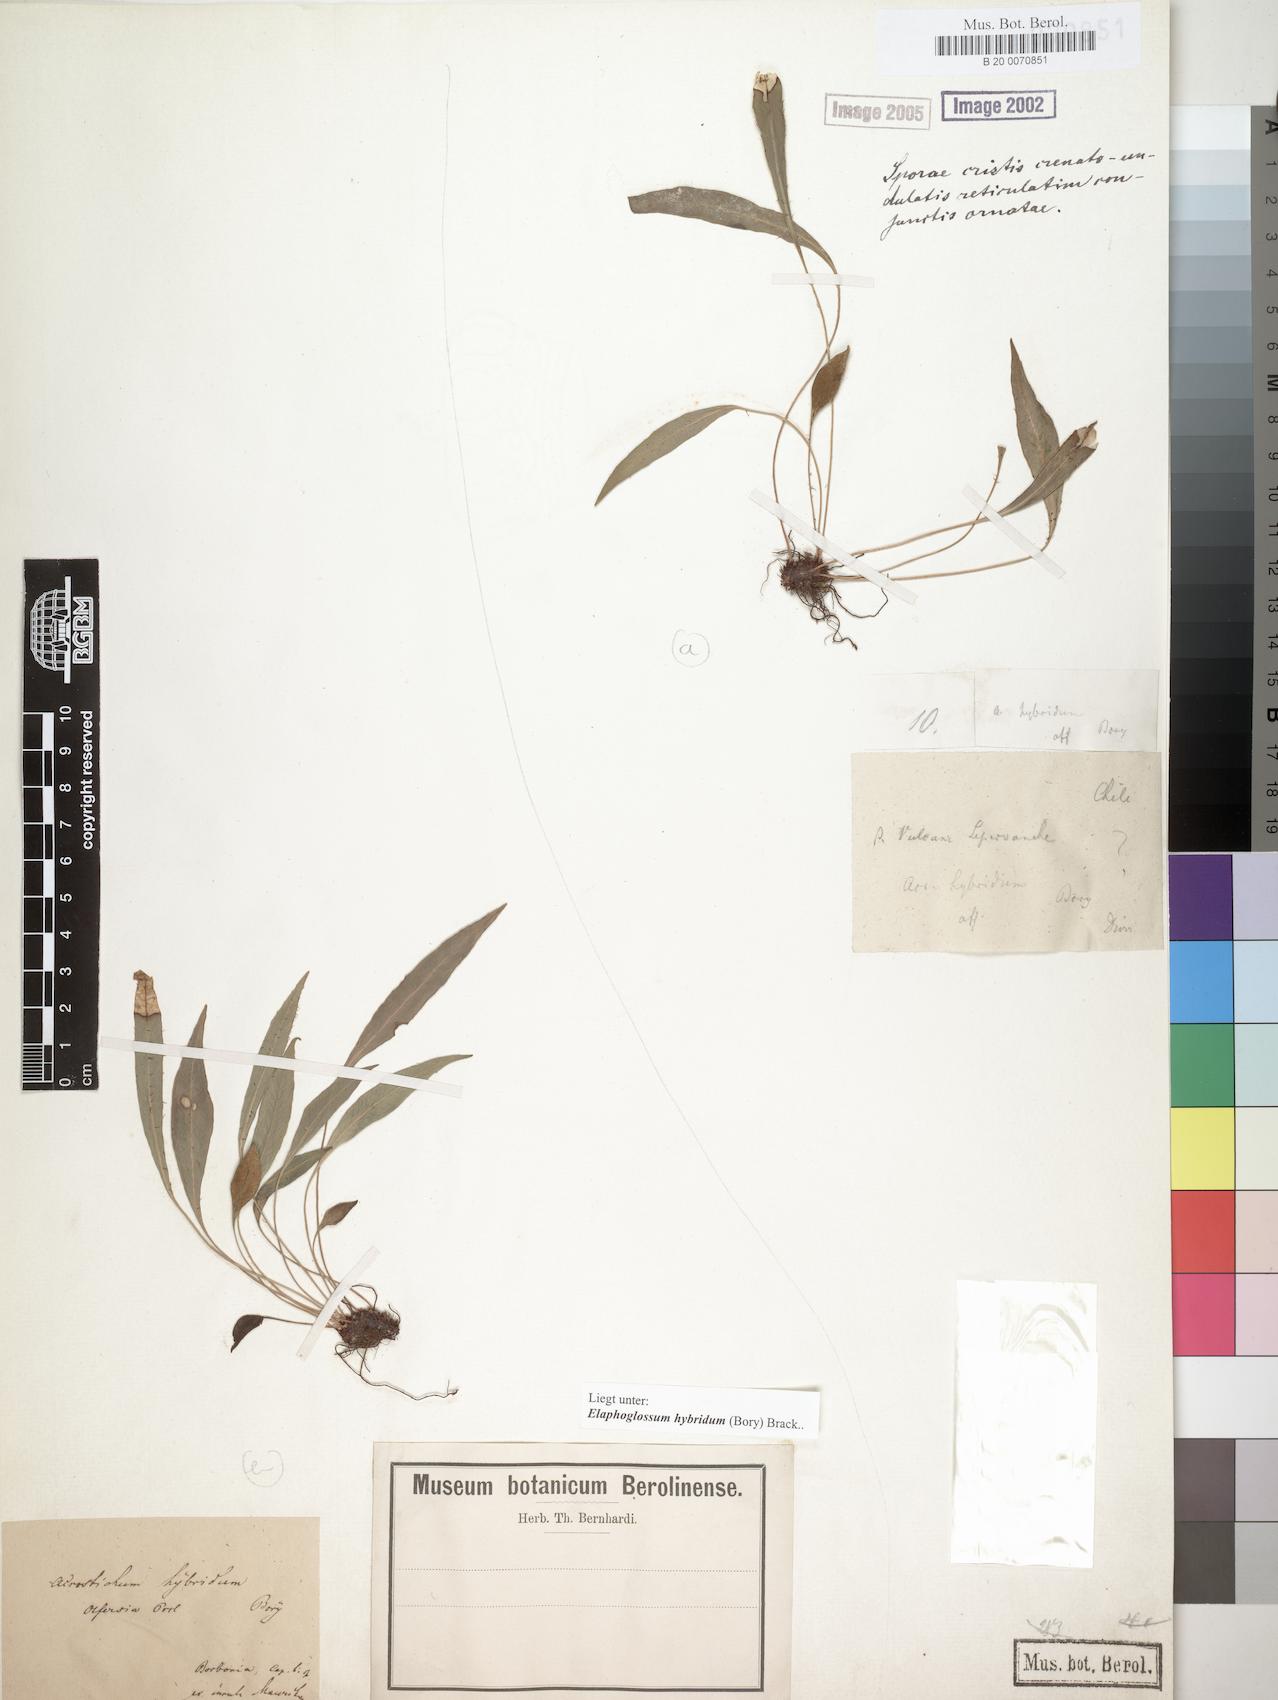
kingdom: Plantae
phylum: Tracheophyta
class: Polypodiopsida
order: Polypodiales
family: Dryopteridaceae
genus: Elaphoglossum
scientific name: Elaphoglossum hybridum
